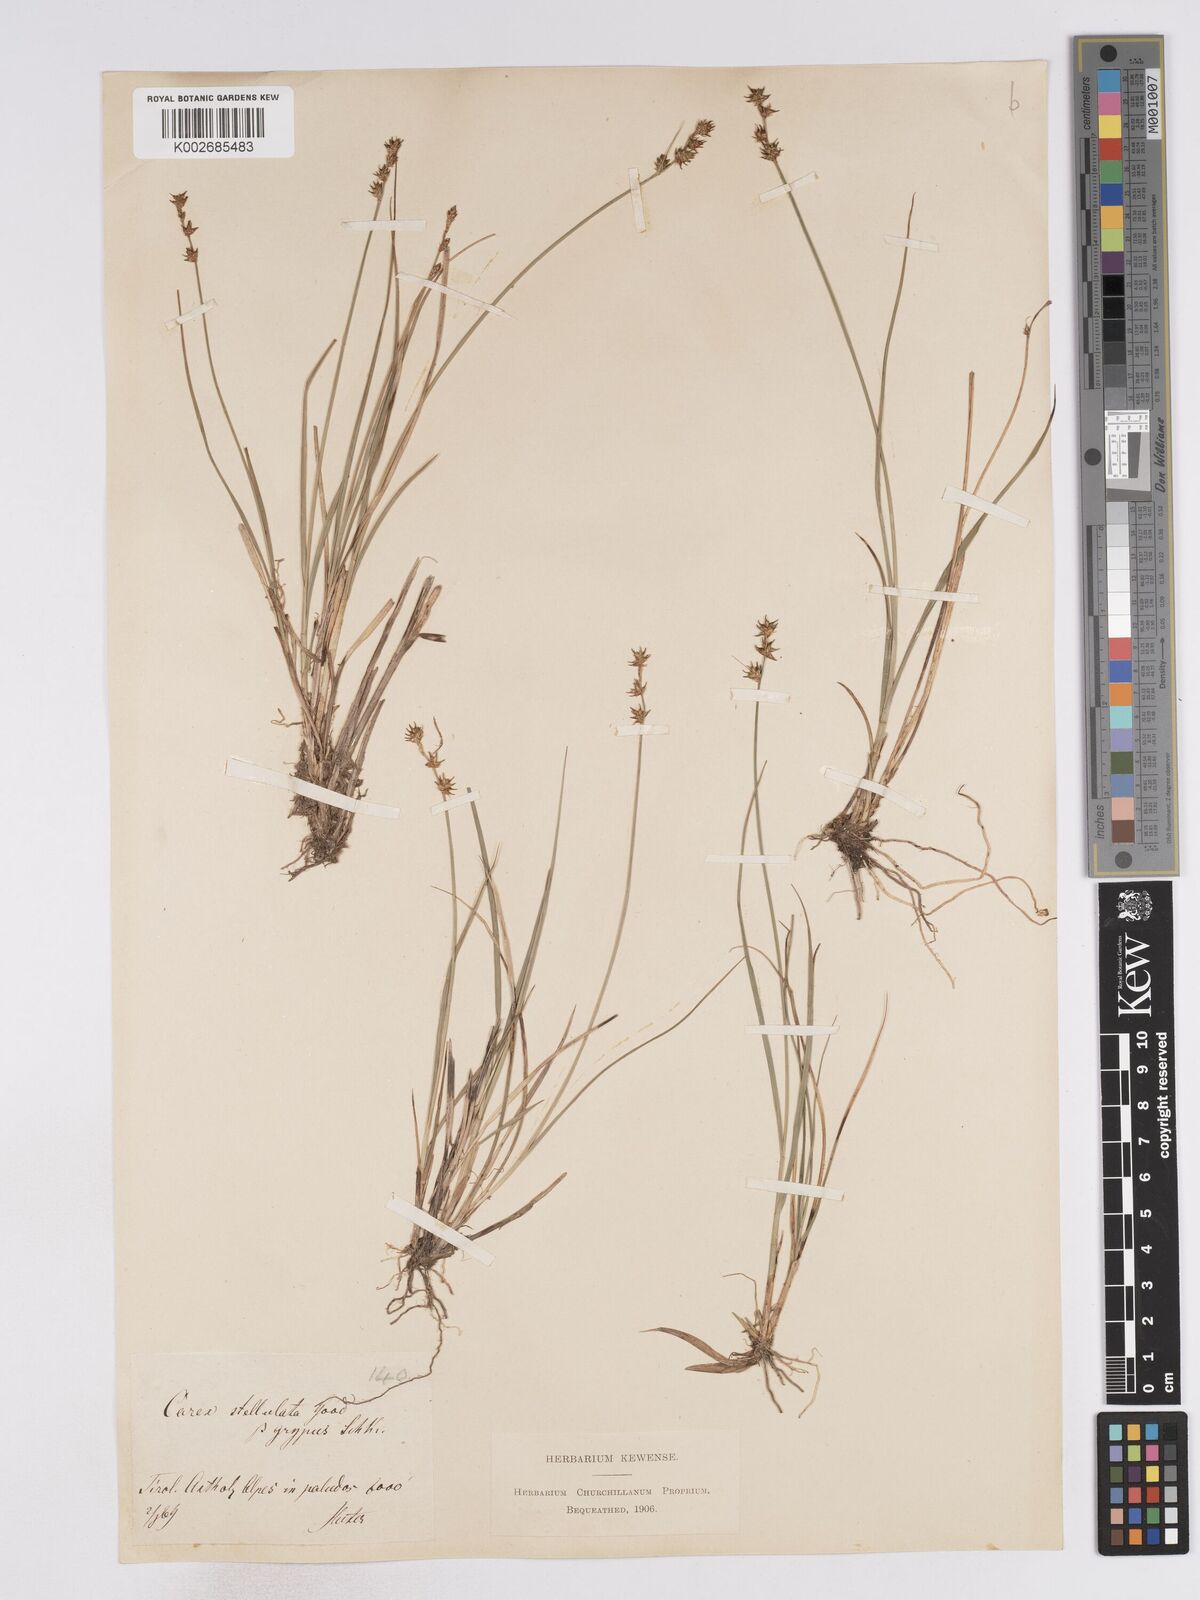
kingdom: Plantae
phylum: Tracheophyta
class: Liliopsida
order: Poales
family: Cyperaceae
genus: Carex
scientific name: Carex echinata
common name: Star sedge
